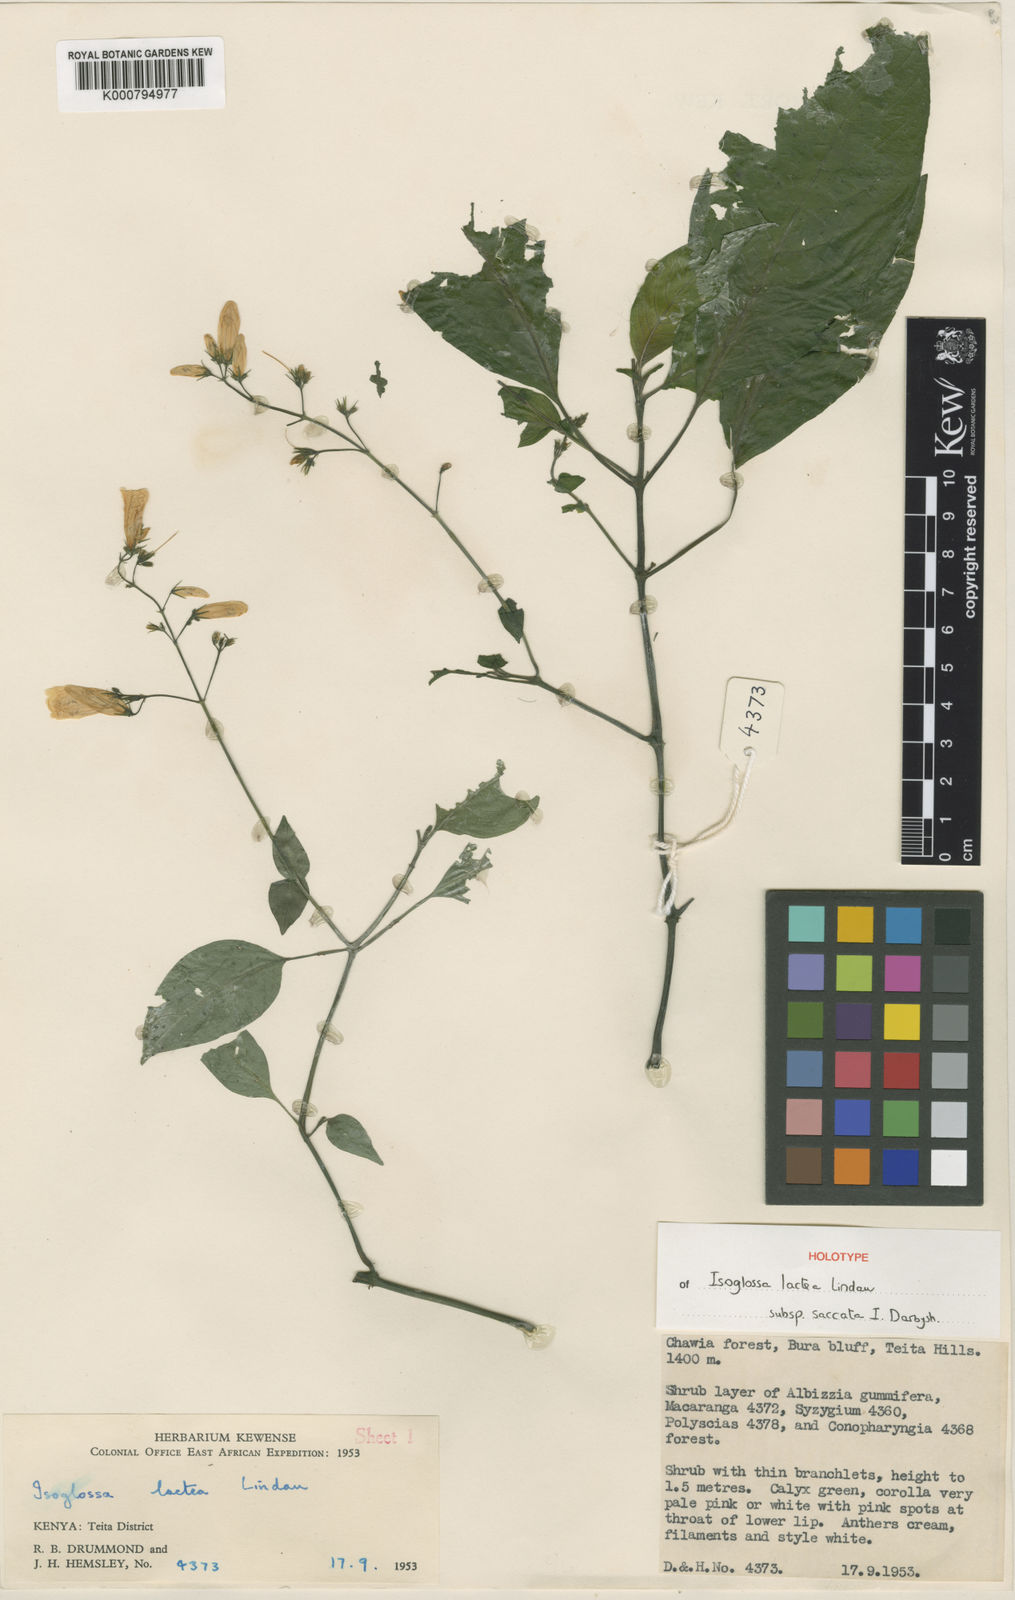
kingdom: Plantae
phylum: Tracheophyta
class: Magnoliopsida
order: Lamiales
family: Acanthaceae
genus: Isoglossa
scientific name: Isoglossa lactea
